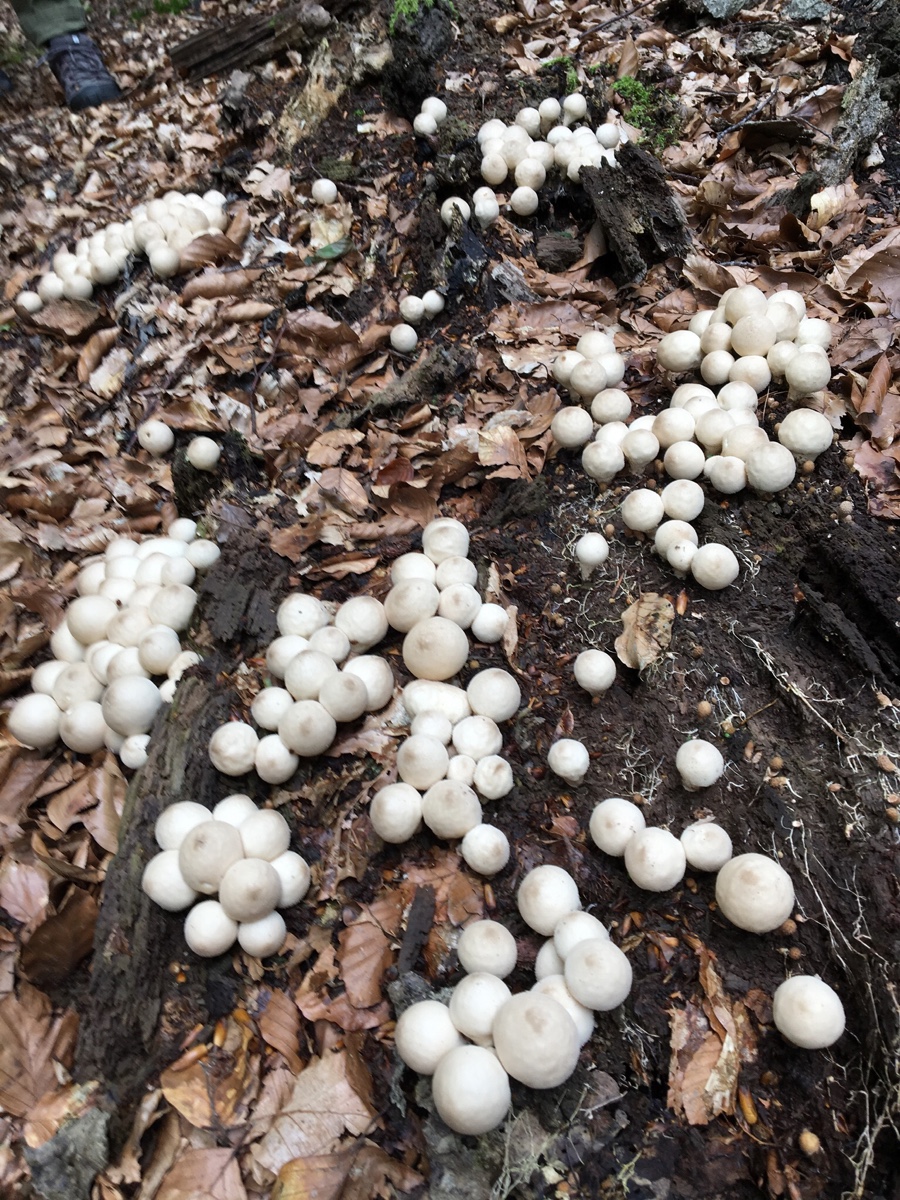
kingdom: Fungi
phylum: Basidiomycota
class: Agaricomycetes
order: Agaricales
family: Lycoperdaceae
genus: Apioperdon
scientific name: Apioperdon pyriforme
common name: pære-støvbold
